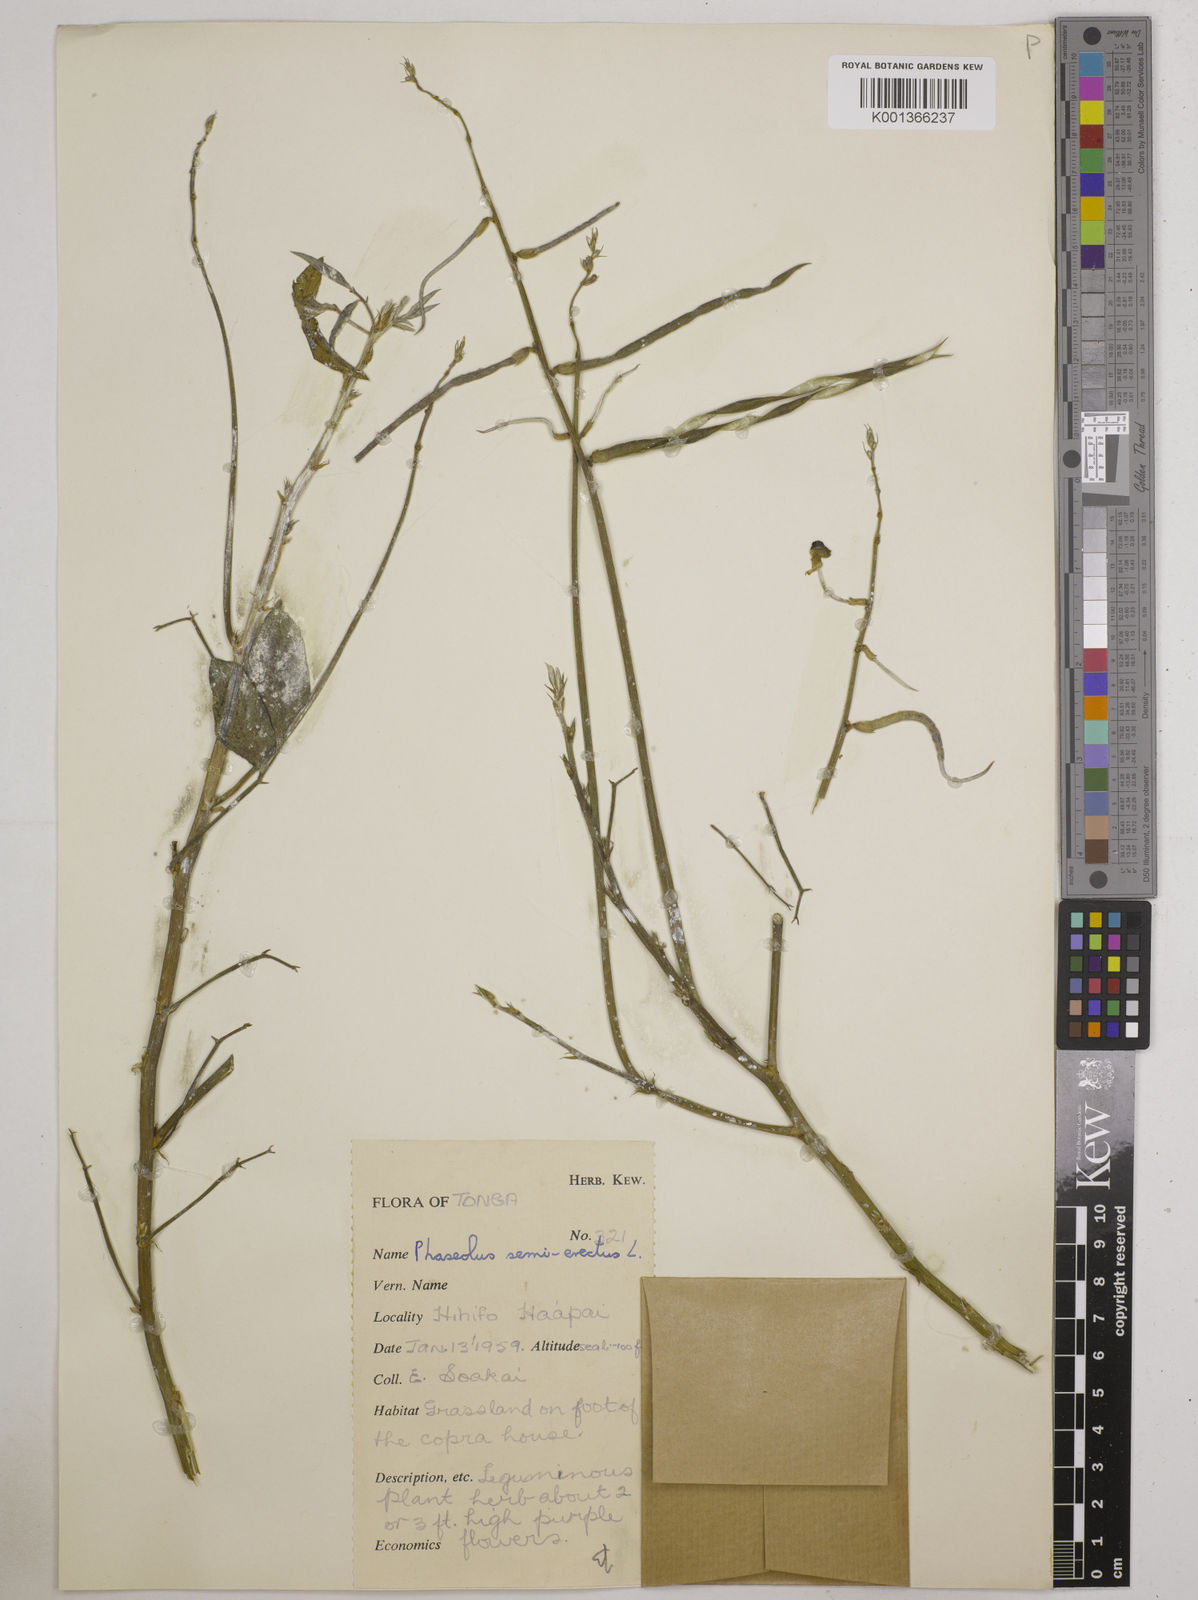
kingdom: Plantae
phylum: Tracheophyta
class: Magnoliopsida
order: Fabales
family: Fabaceae
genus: Macroptilium
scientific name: Macroptilium lathyroides
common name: Wild bushbean
